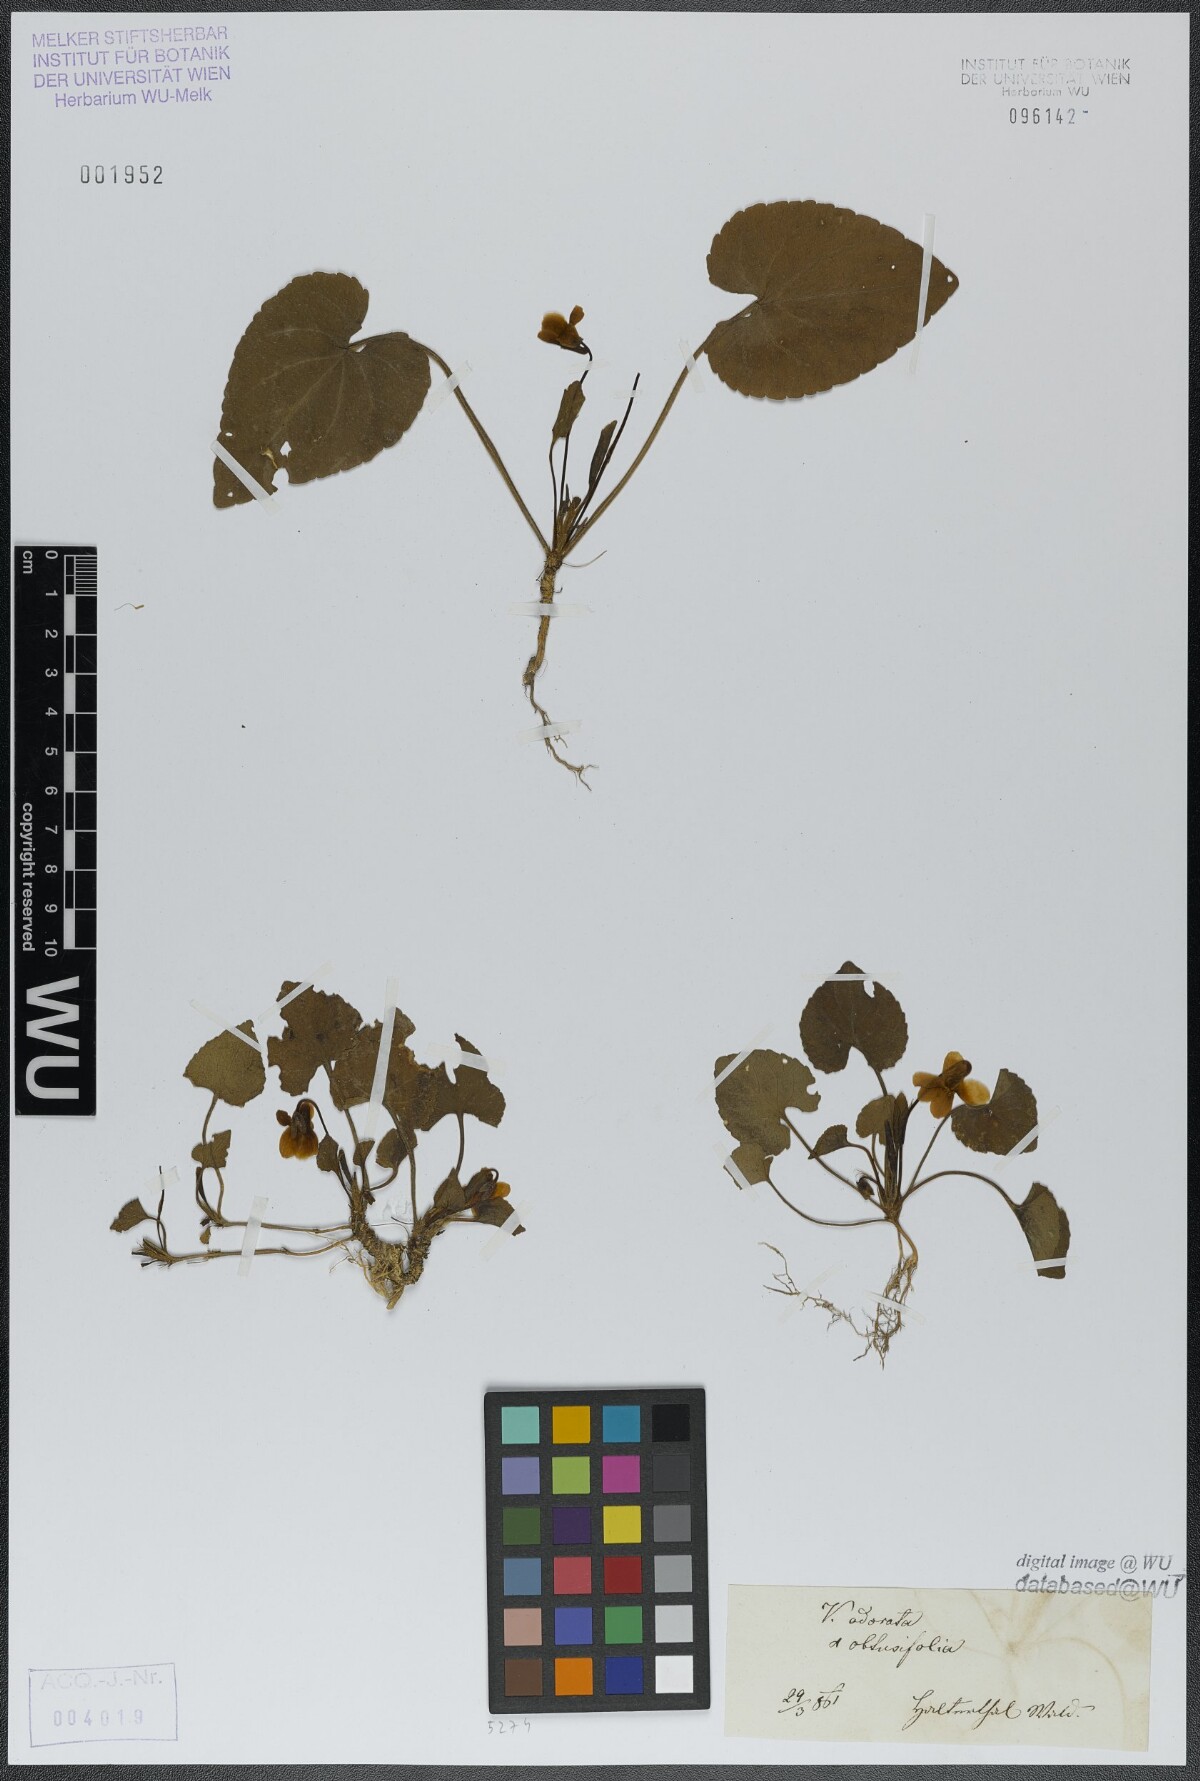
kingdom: Plantae
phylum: Tracheophyta
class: Magnoliopsida
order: Malpighiales
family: Violaceae
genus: Viola
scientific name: Viola odorata
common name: Sweet violet
